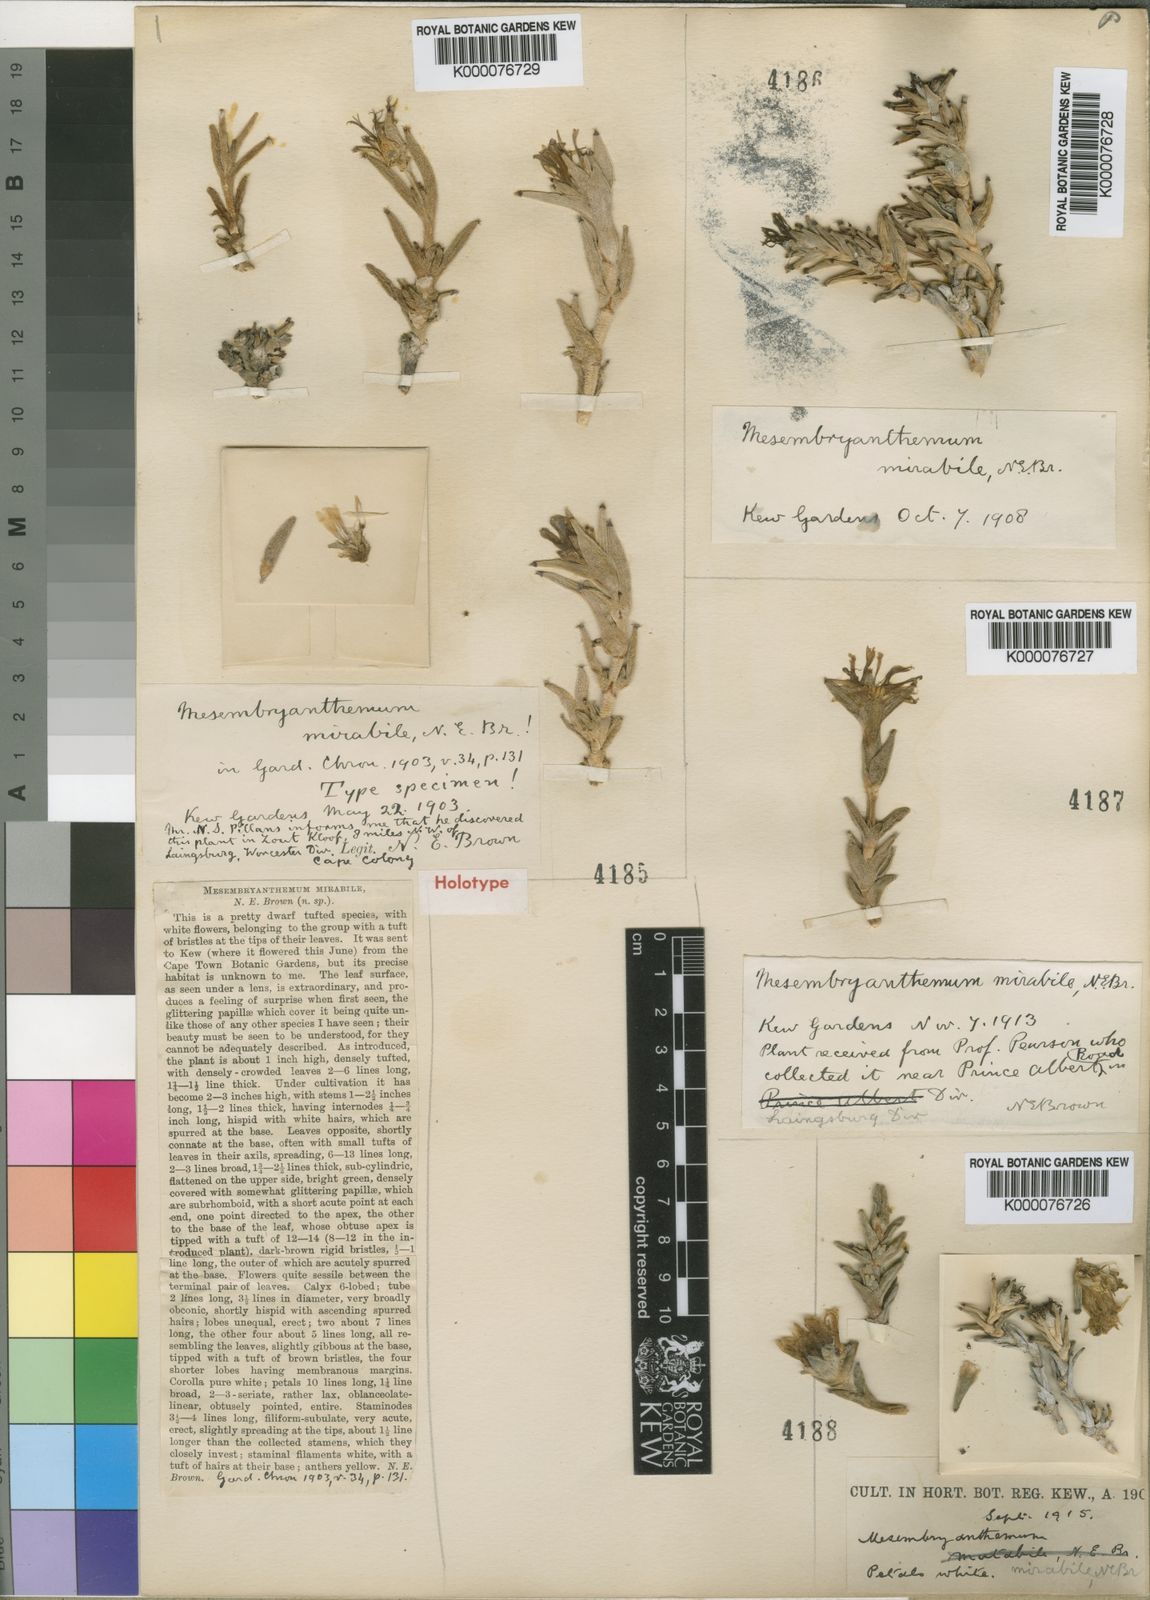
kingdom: Plantae
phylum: Tracheophyta
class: Magnoliopsida
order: Caryophyllales
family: Aizoaceae
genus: Trichodiadema
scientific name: Trichodiadema mirabile
